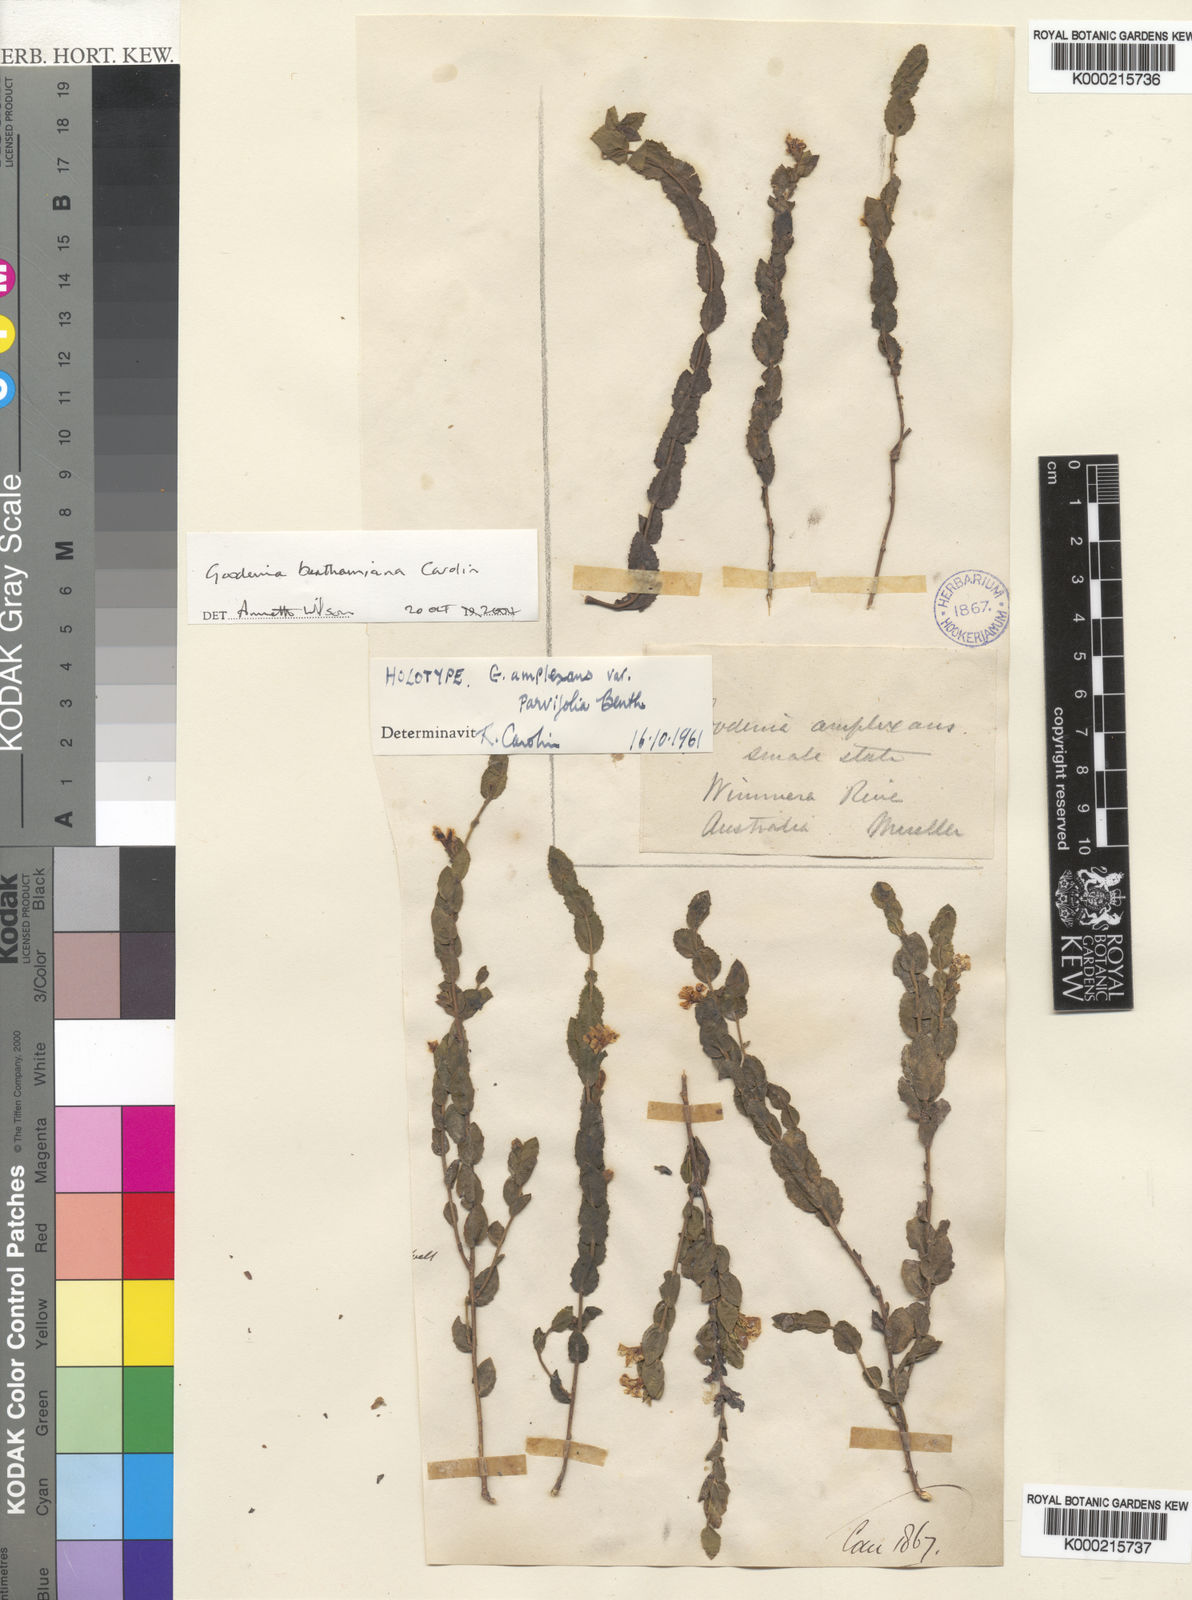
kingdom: Plantae
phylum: Tracheophyta
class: Magnoliopsida
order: Asterales
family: Goodeniaceae
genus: Goodenia
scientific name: Goodenia benthamiana
